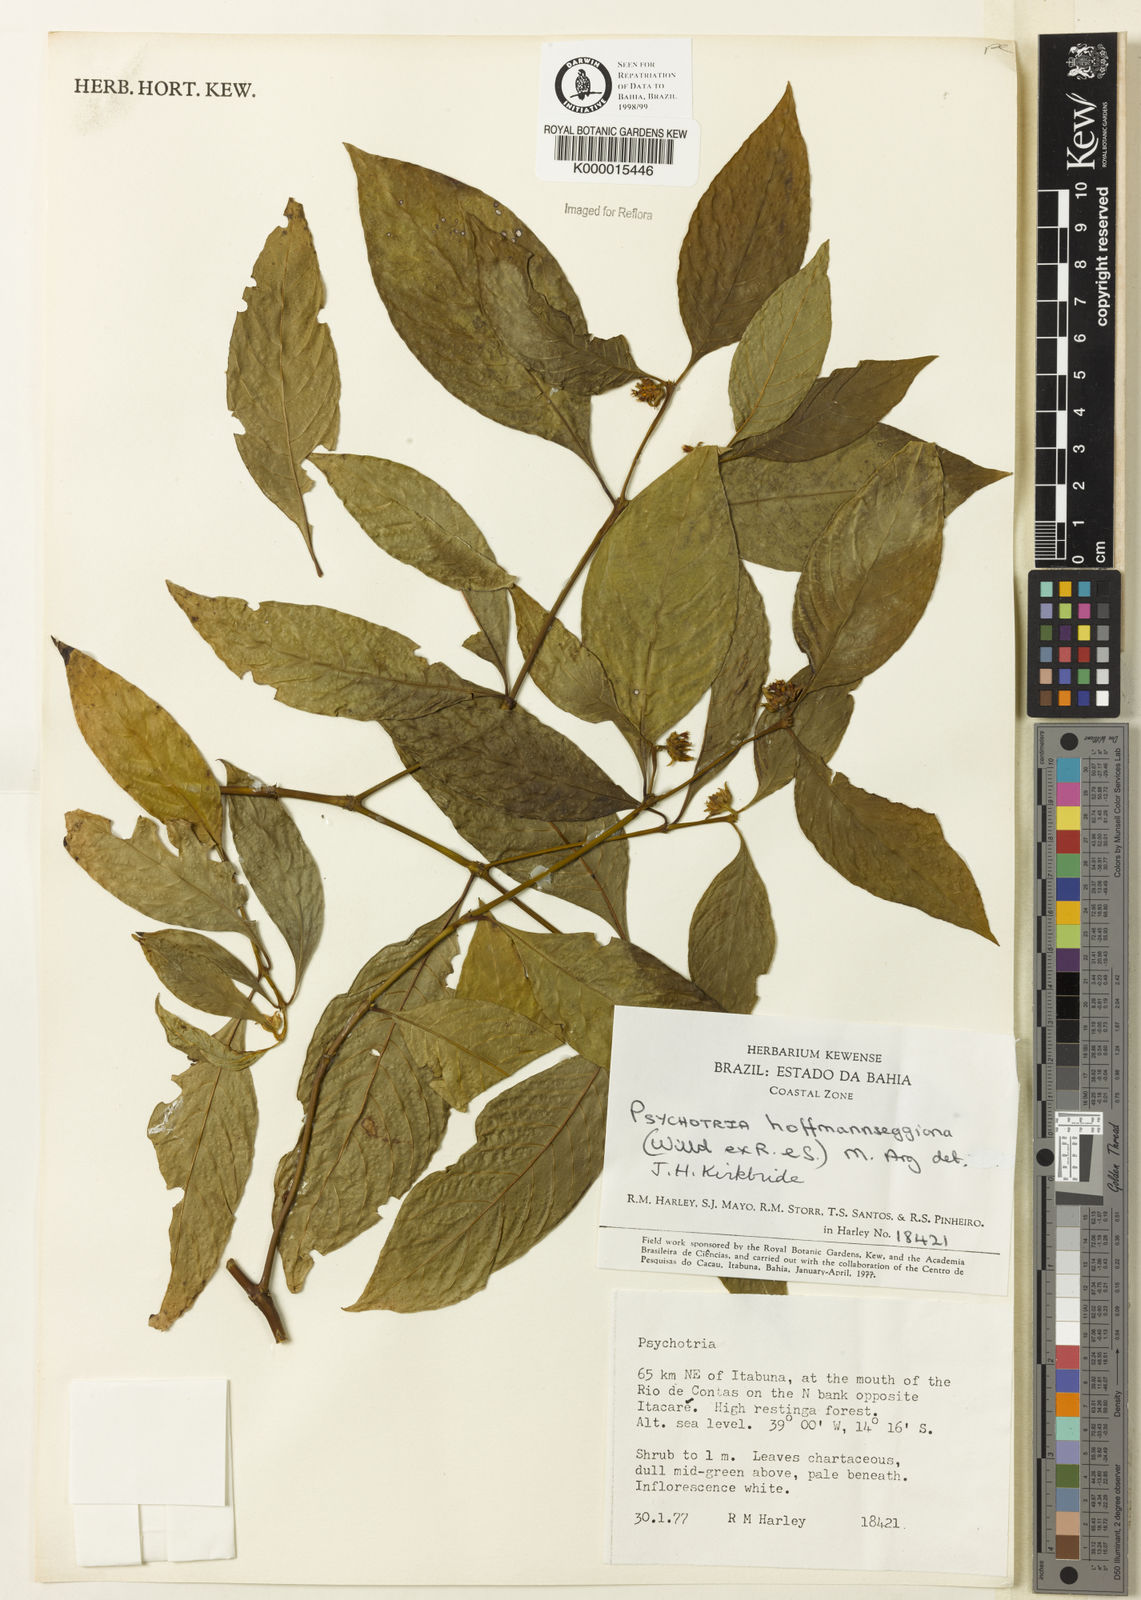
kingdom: Plantae
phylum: Tracheophyta
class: Magnoliopsida
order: Gentianales
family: Rubiaceae
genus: Psychotria
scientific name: Psychotria
